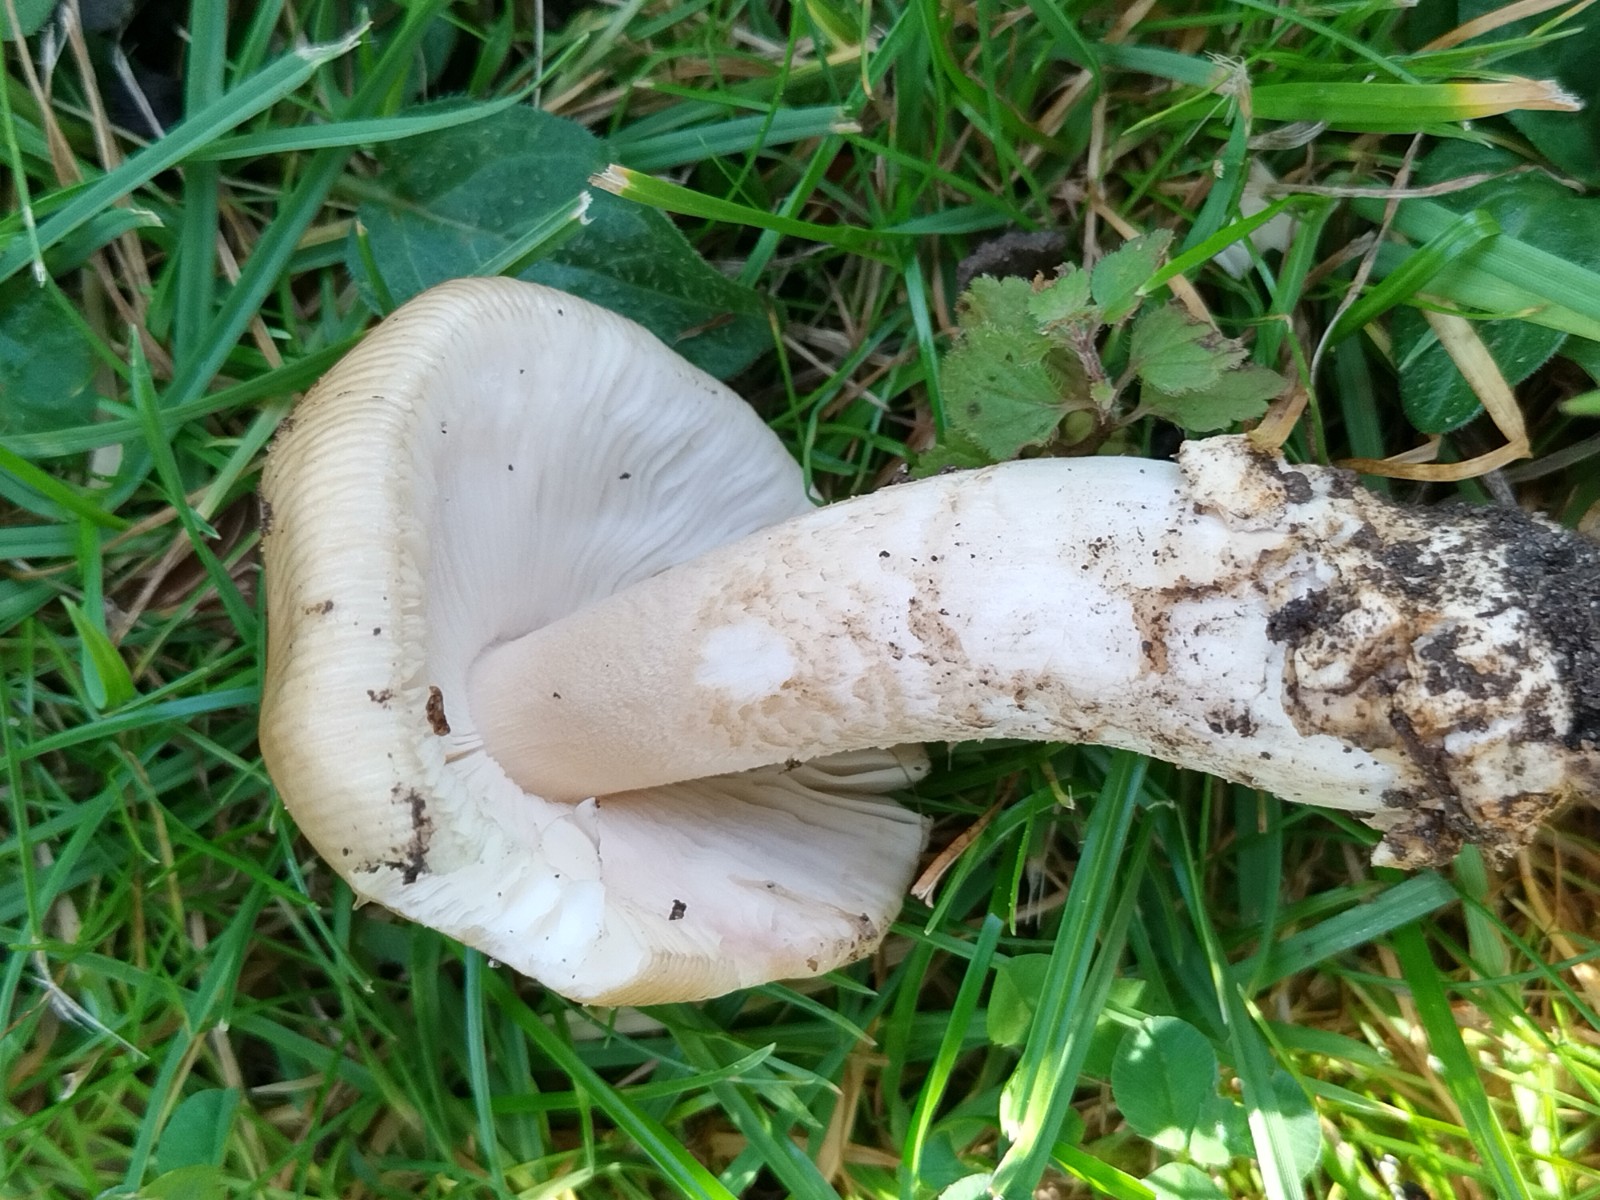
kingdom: Fungi
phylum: Basidiomycota
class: Agaricomycetes
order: Agaricales
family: Amanitaceae
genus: Amanita
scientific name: Amanita lividopallescens
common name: afblegende kam-fluesvamp
